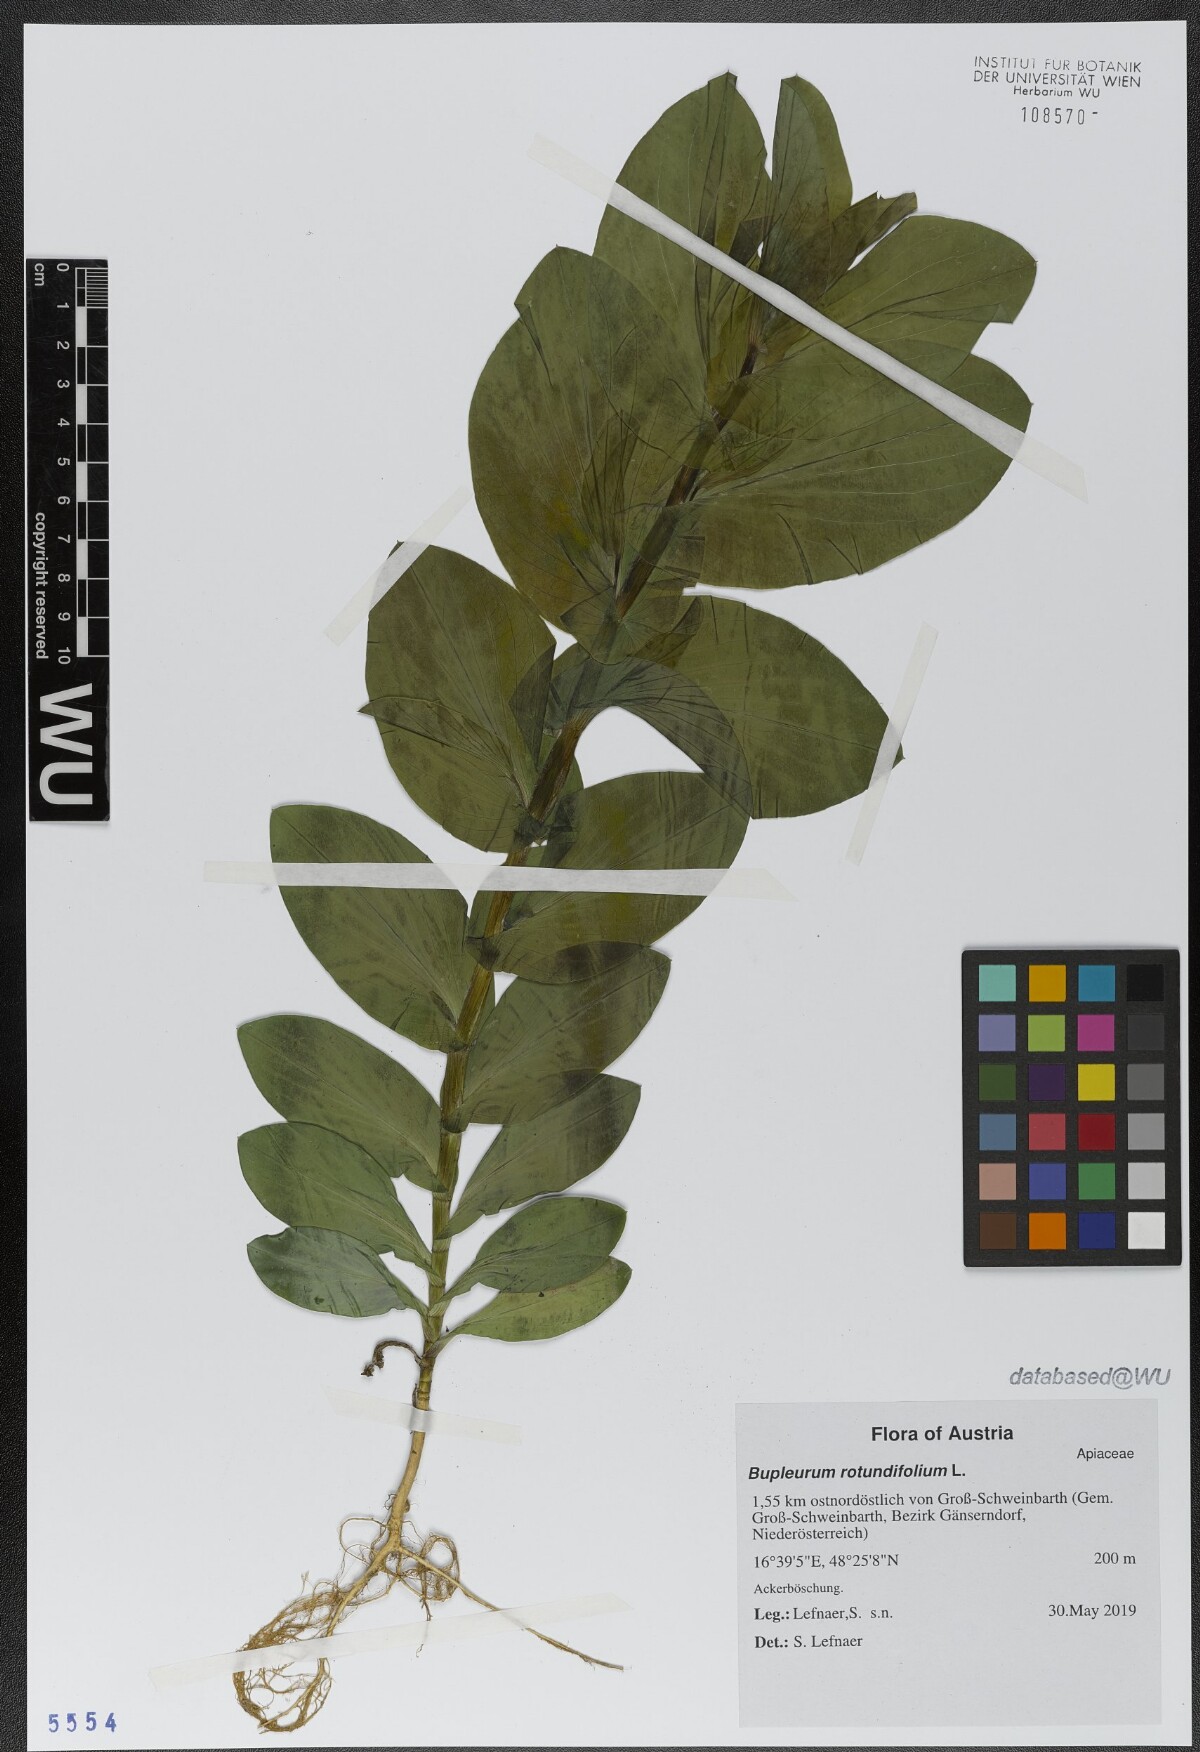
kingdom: Plantae
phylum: Tracheophyta
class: Magnoliopsida
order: Apiales
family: Apiaceae
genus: Bupleurum
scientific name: Bupleurum rotundifolium
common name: Thorow-wax
